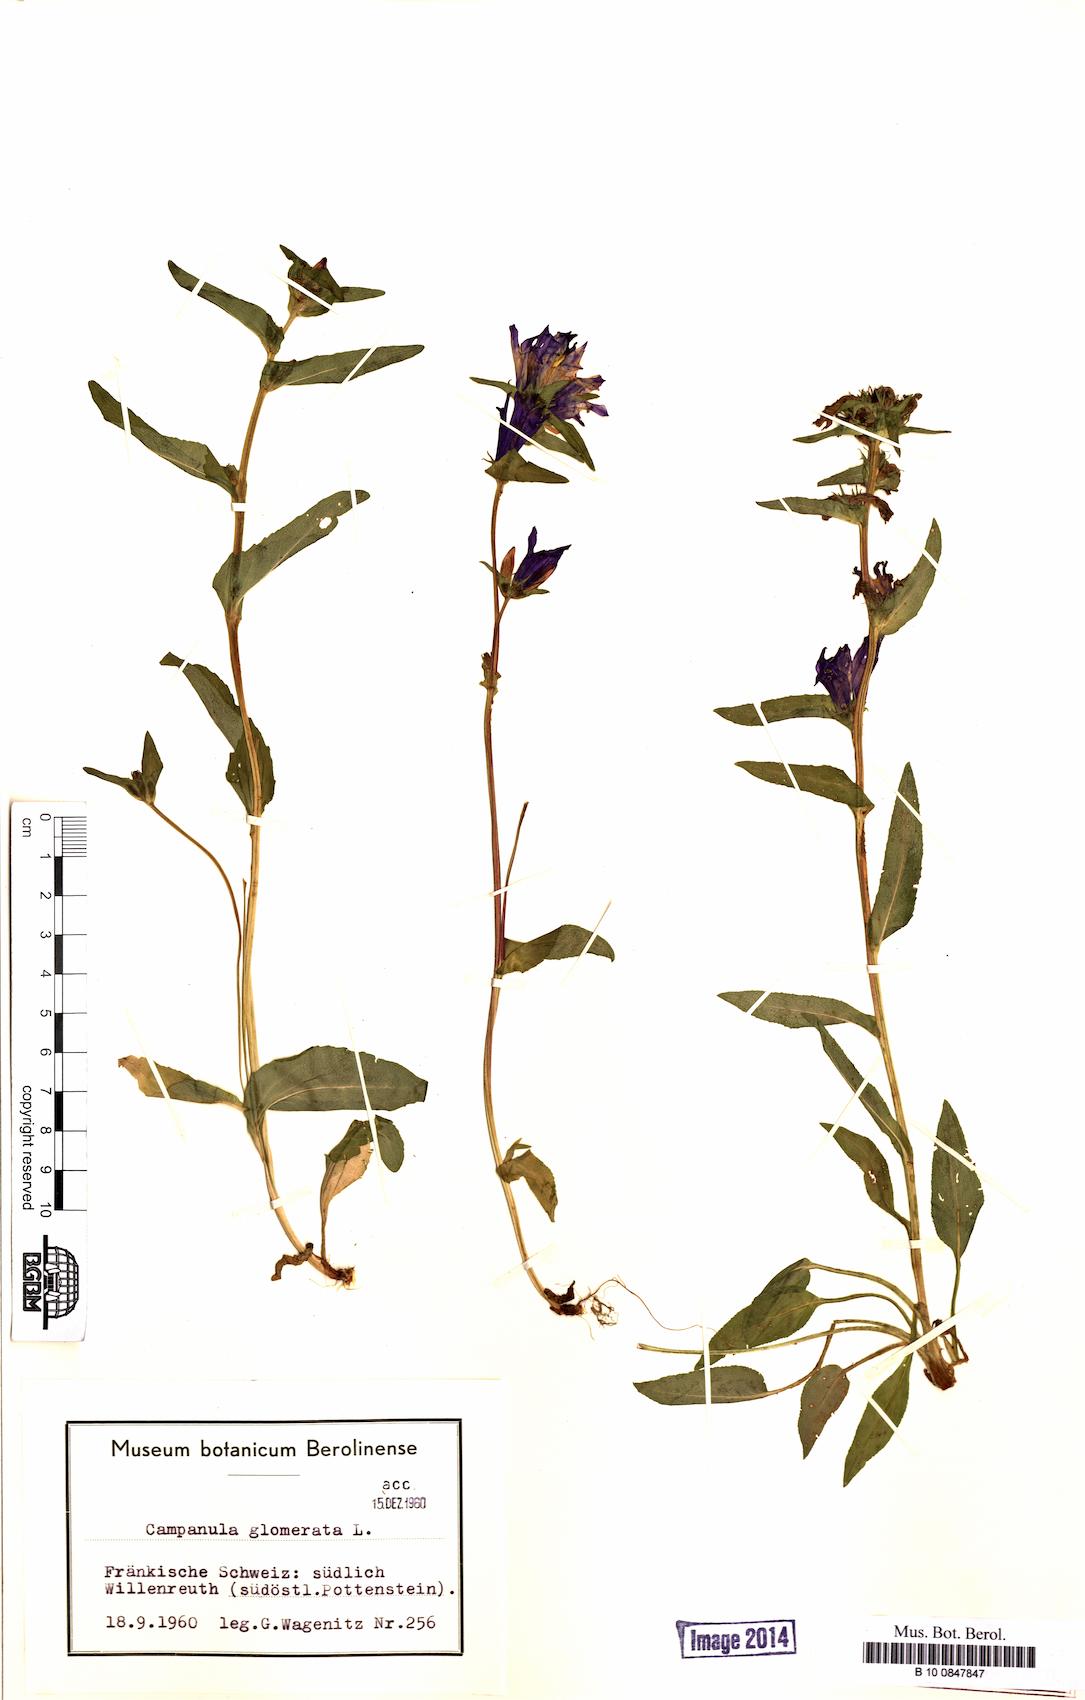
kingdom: Plantae
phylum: Tracheophyta
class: Magnoliopsida
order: Asterales
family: Campanulaceae
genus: Campanula
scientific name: Campanula glomerata
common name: Clustered bellflower
